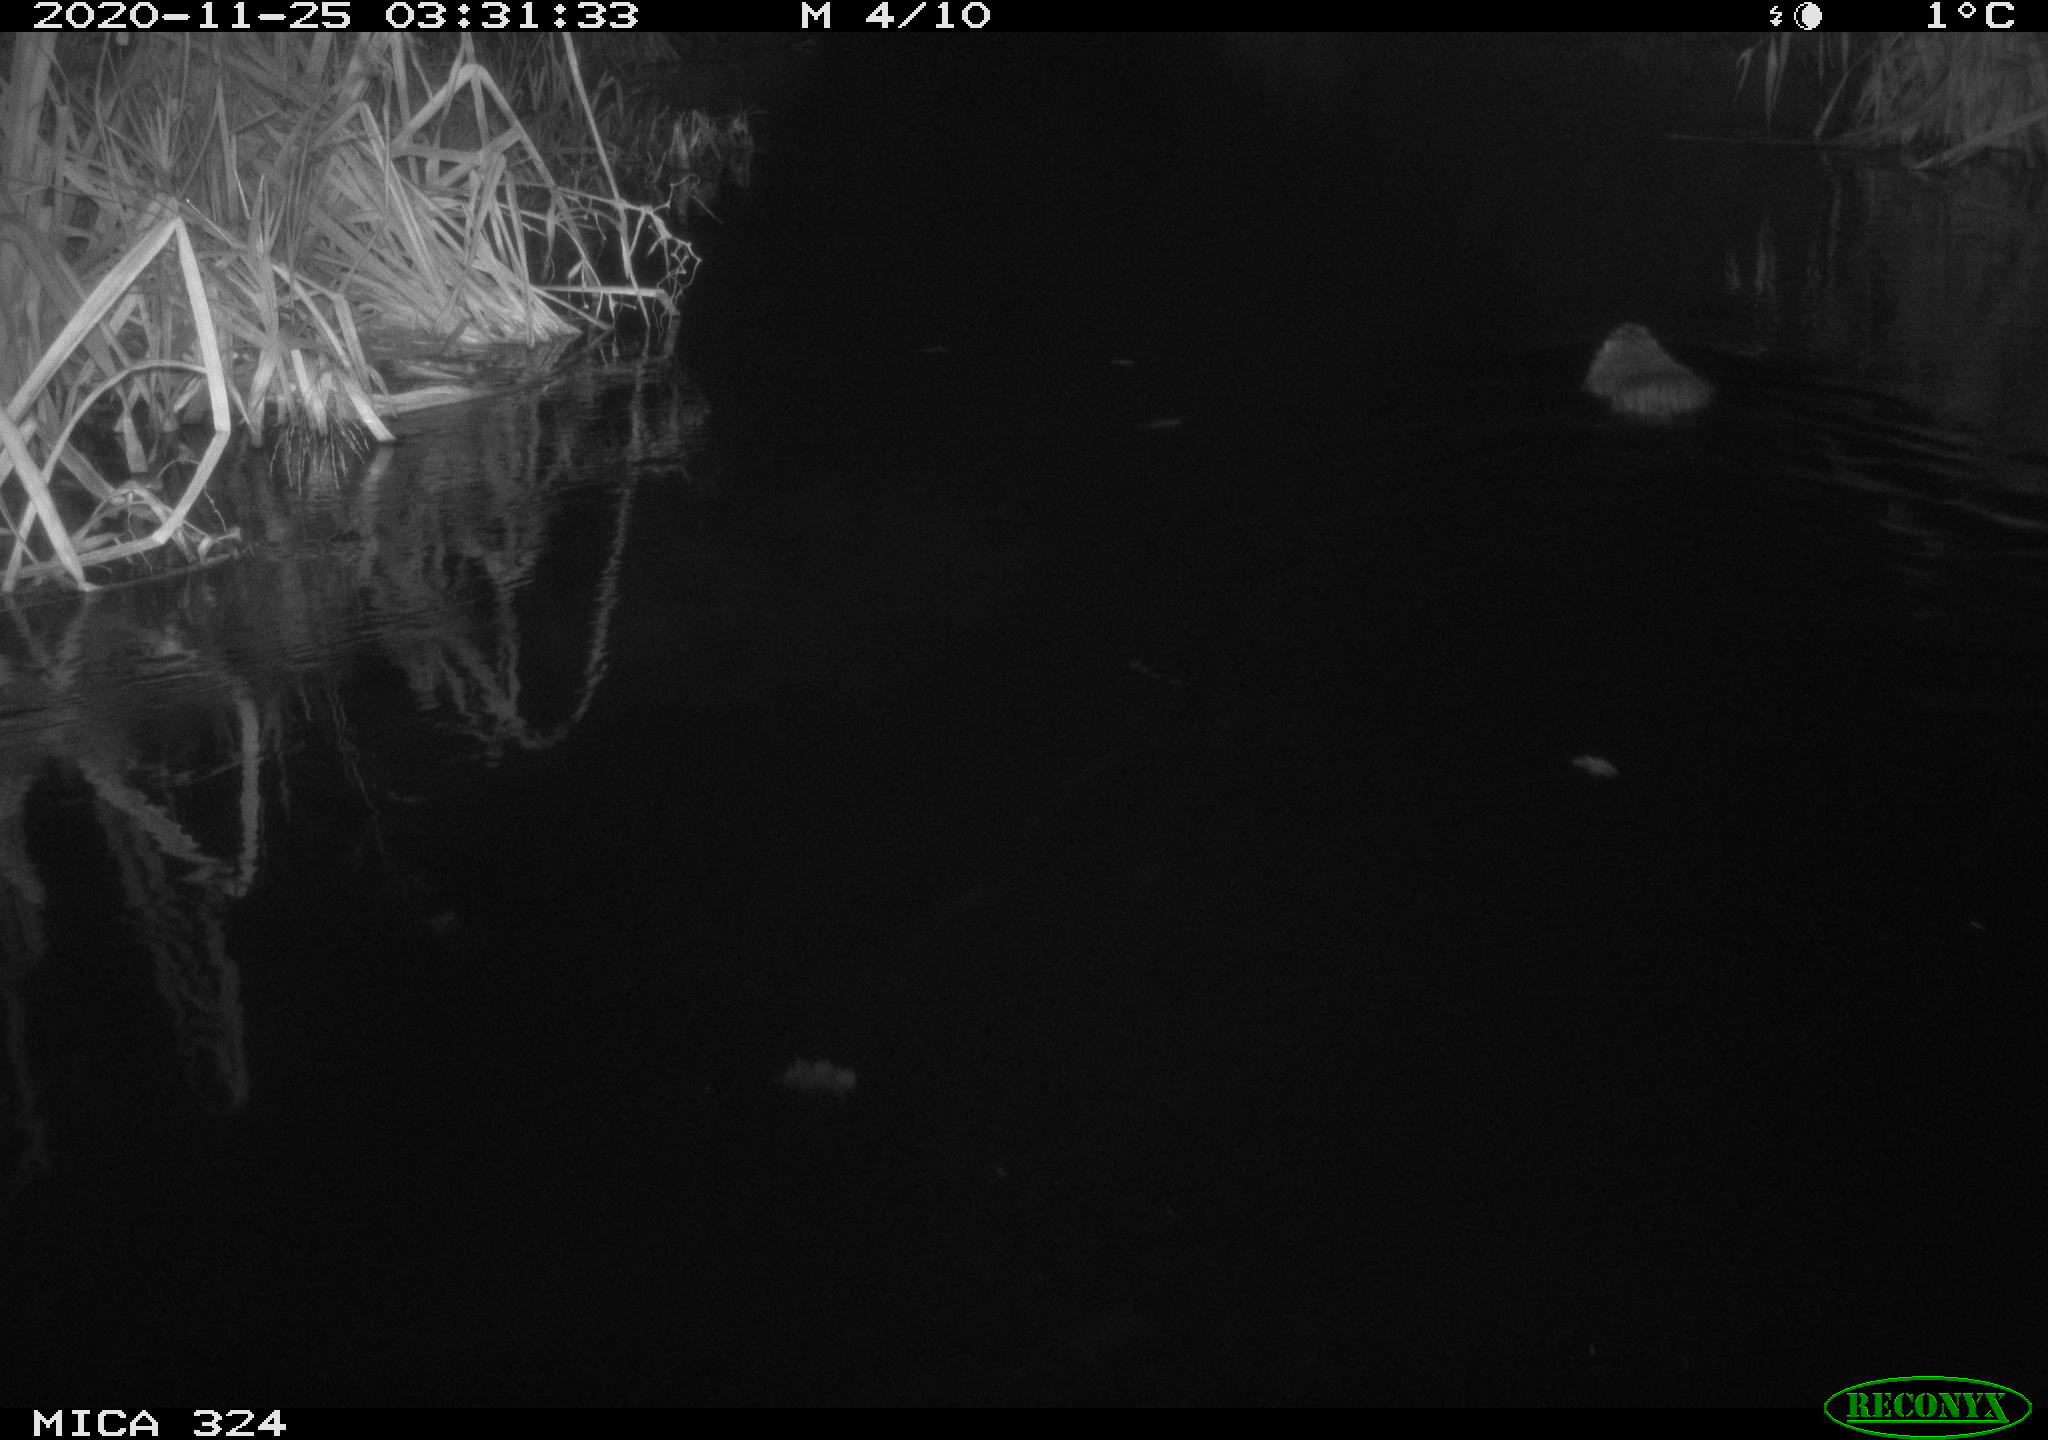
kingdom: Animalia
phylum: Chordata
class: Mammalia
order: Rodentia
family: Myocastoridae
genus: Myocastor
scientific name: Myocastor coypus
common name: Coypu
